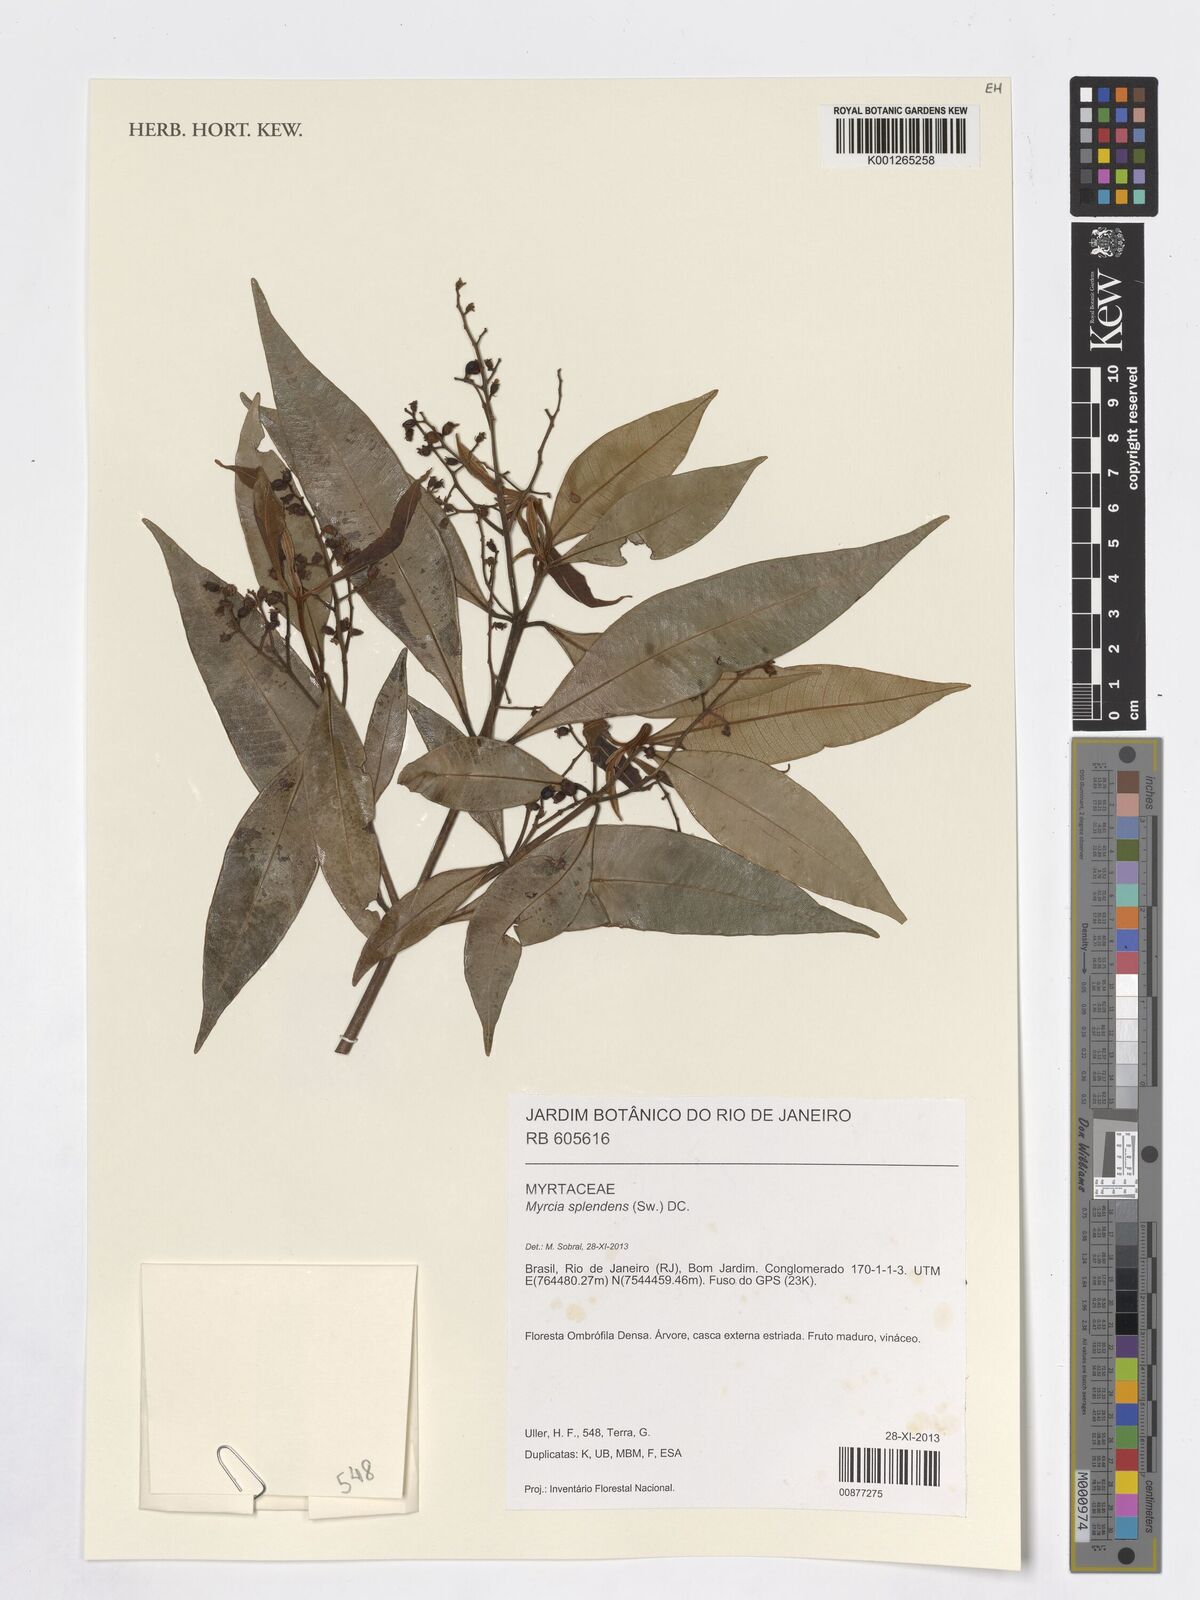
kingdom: Plantae
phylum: Tracheophyta
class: Magnoliopsida
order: Myrtales
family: Myrtaceae
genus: Myrcia
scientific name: Myrcia splendens
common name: Surinam cherry
